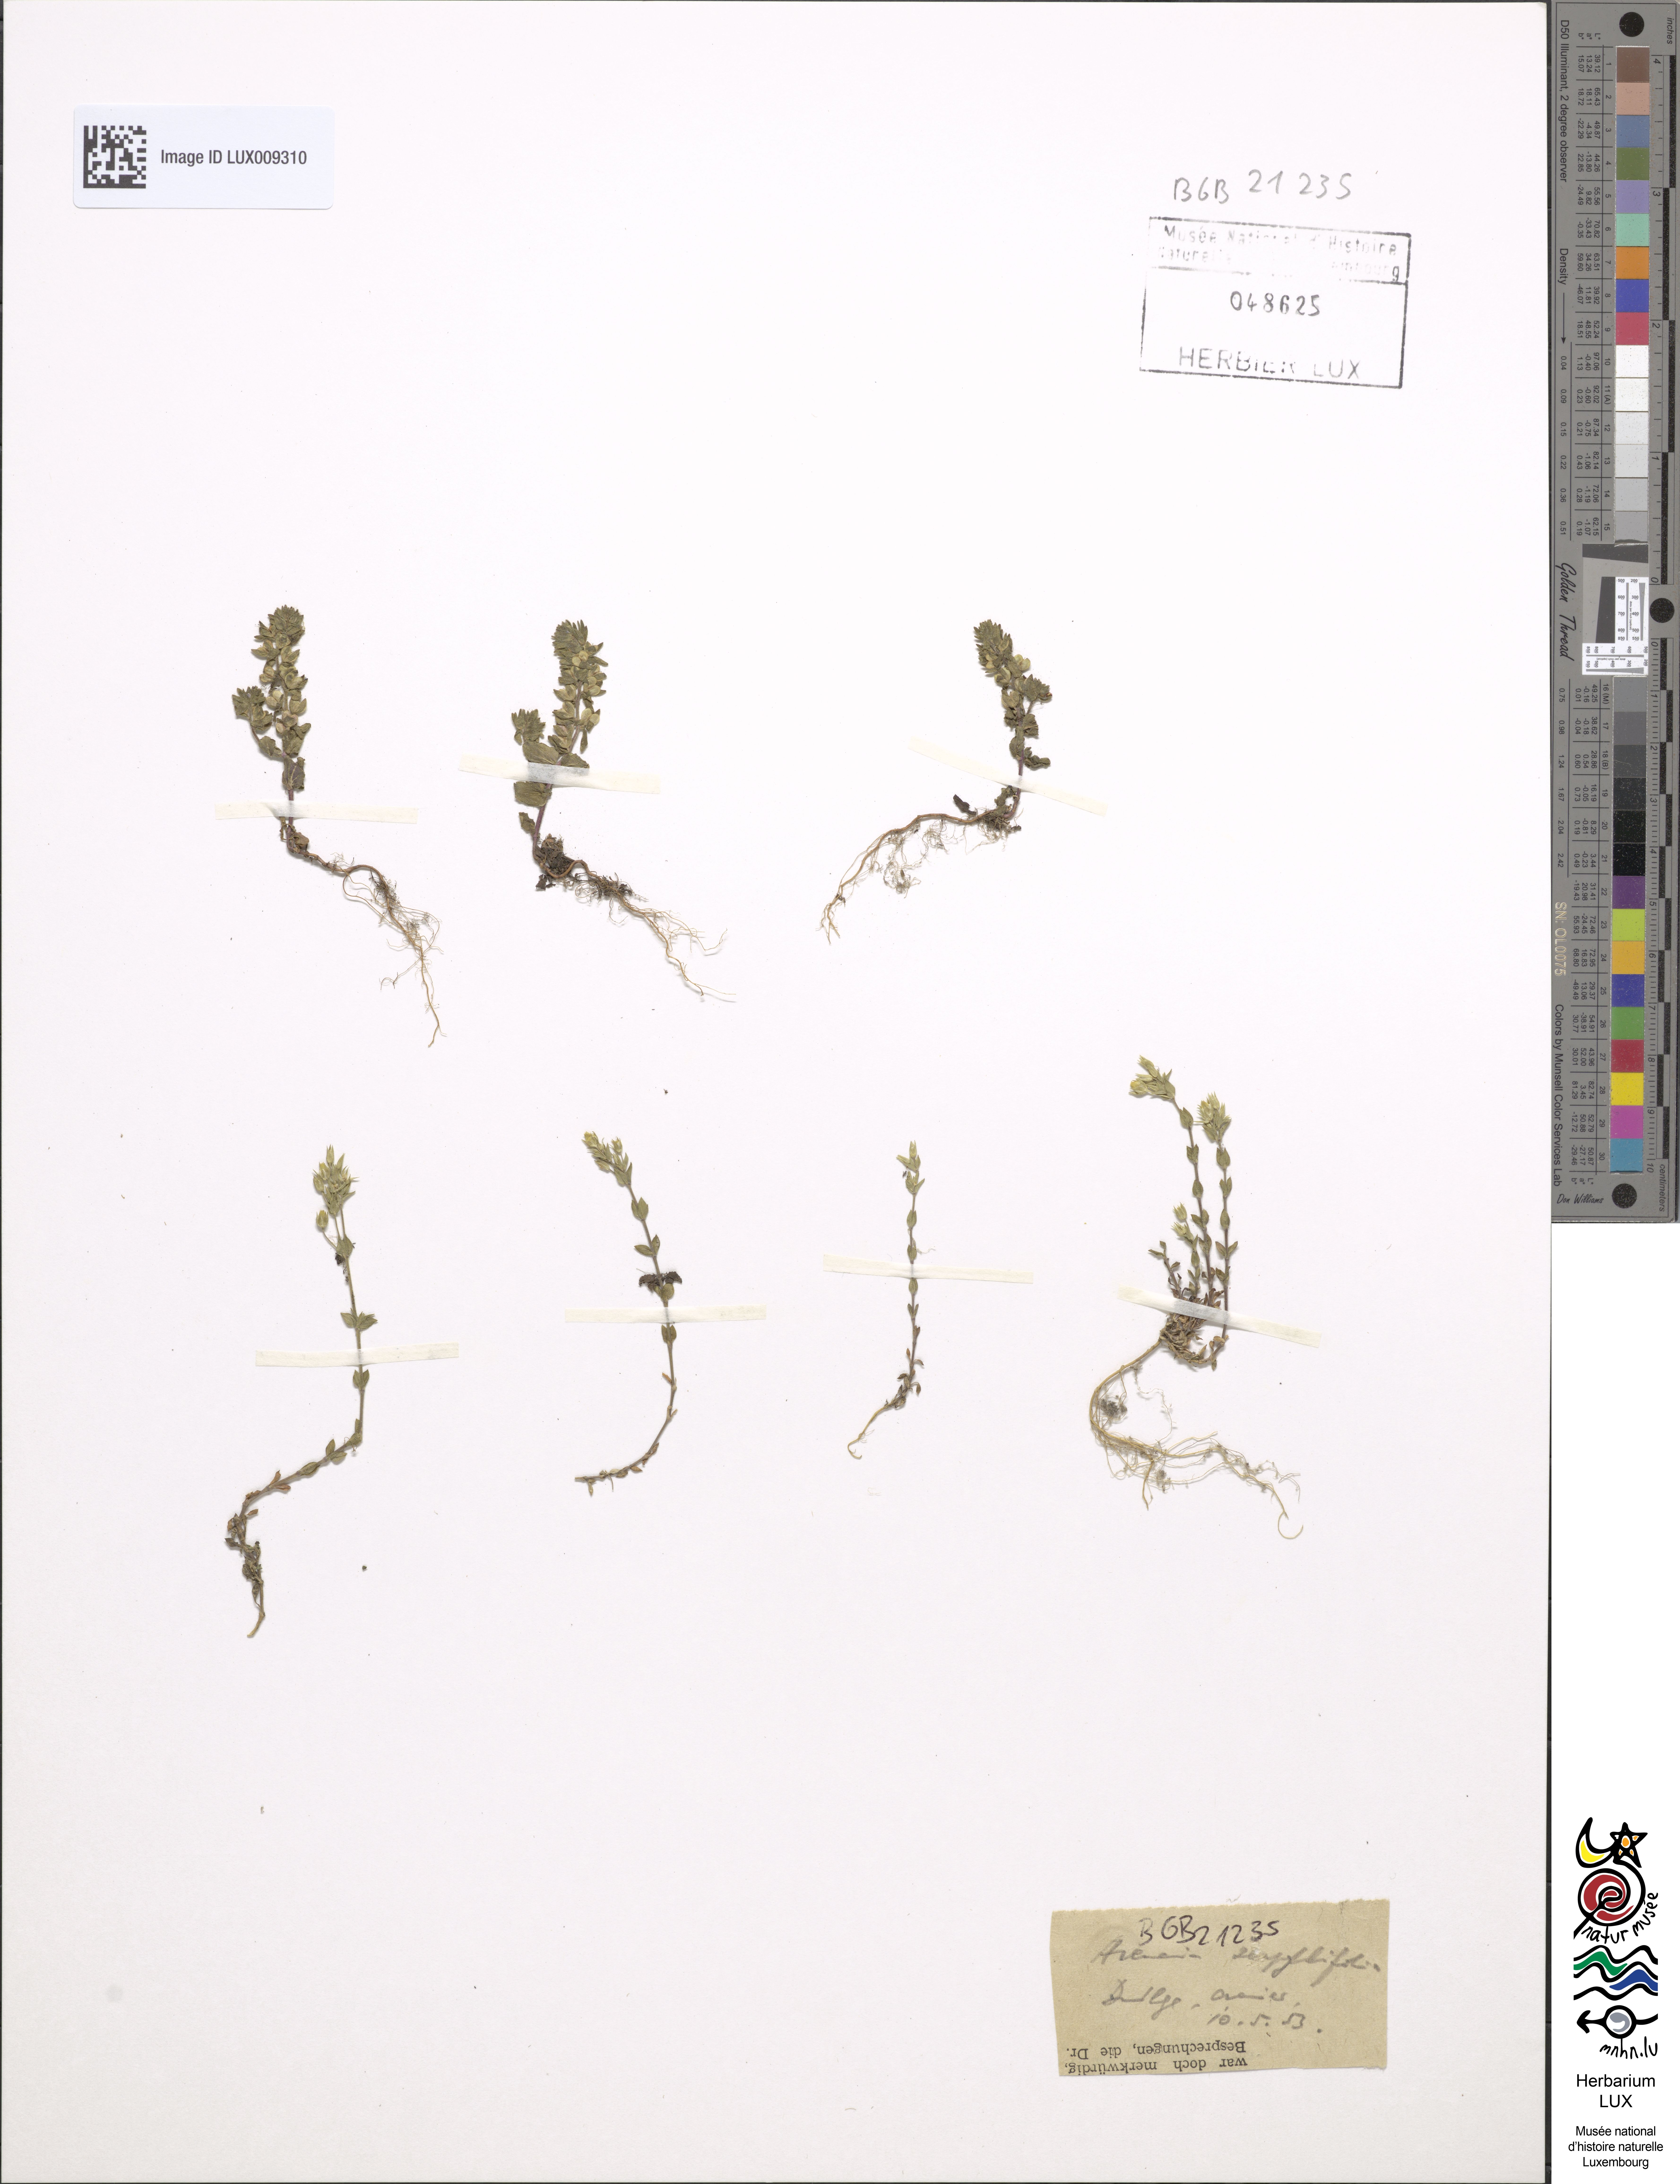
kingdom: Plantae
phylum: Tracheophyta
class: Magnoliopsida
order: Caryophyllales
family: Caryophyllaceae
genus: Arenaria
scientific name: Arenaria
